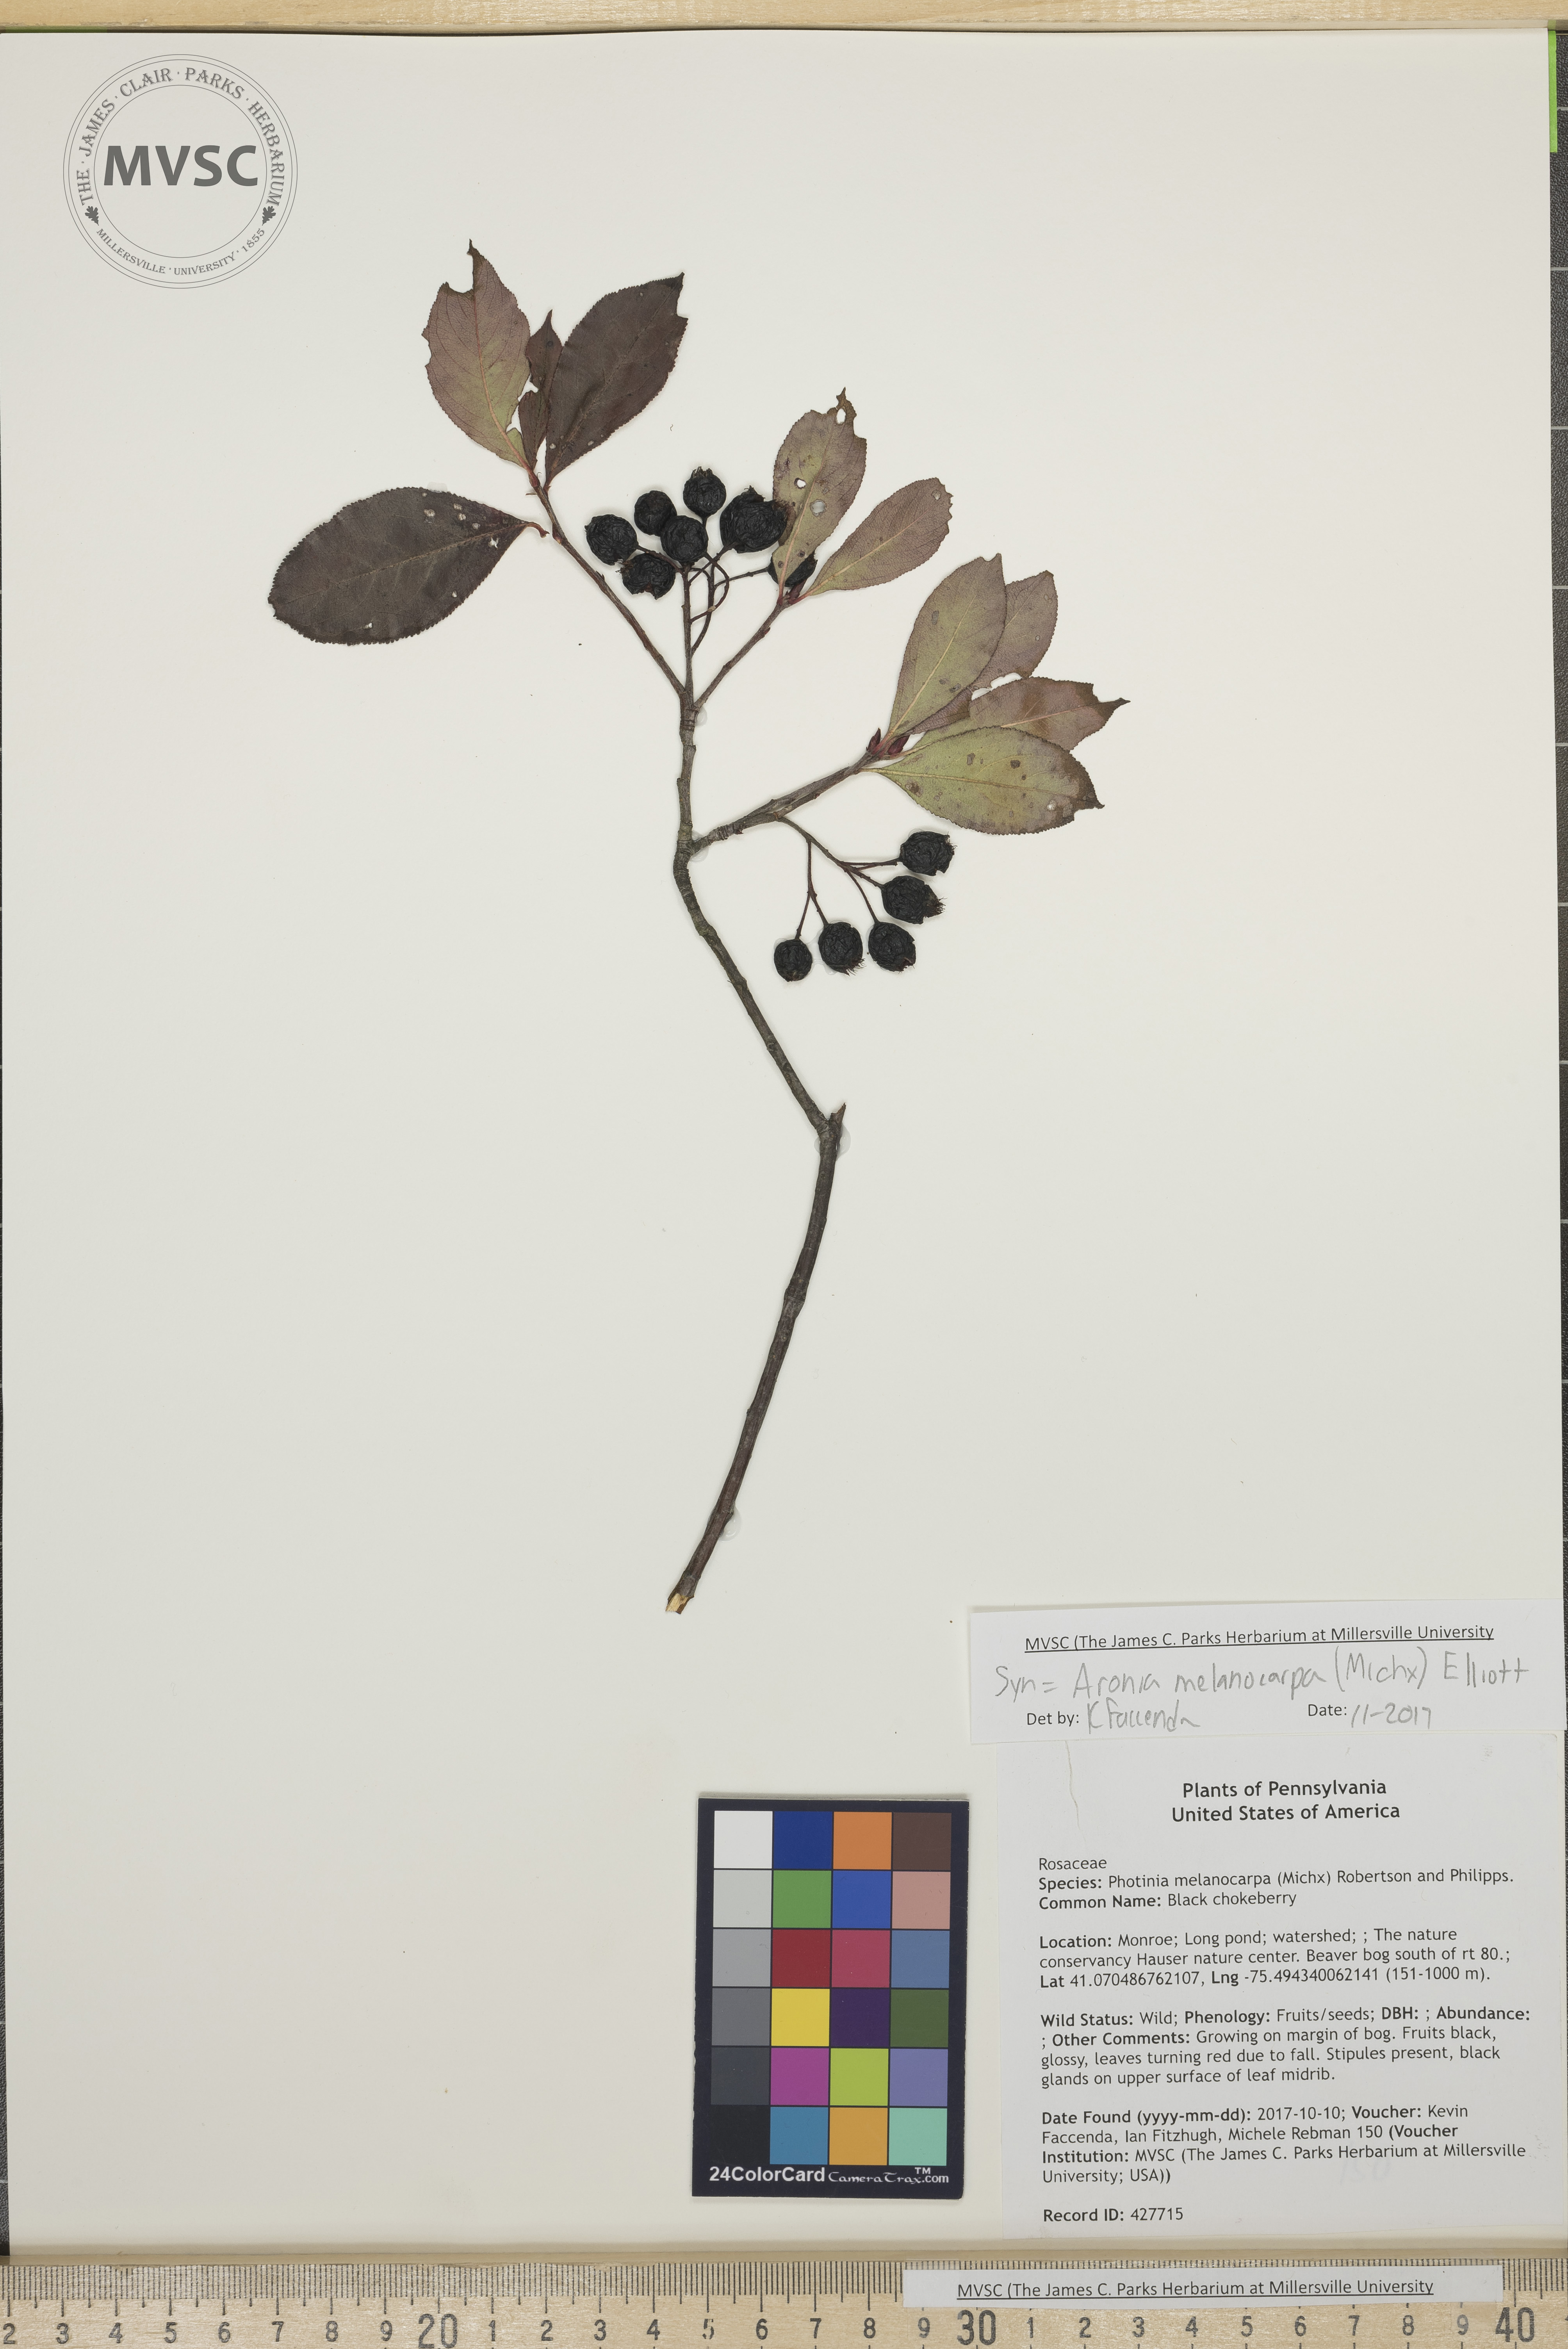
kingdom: Plantae
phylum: Tracheophyta
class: Magnoliopsida
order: Rosales
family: Rosaceae
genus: Aronia
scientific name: Aronia melanocarpa
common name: Black chokeberry
